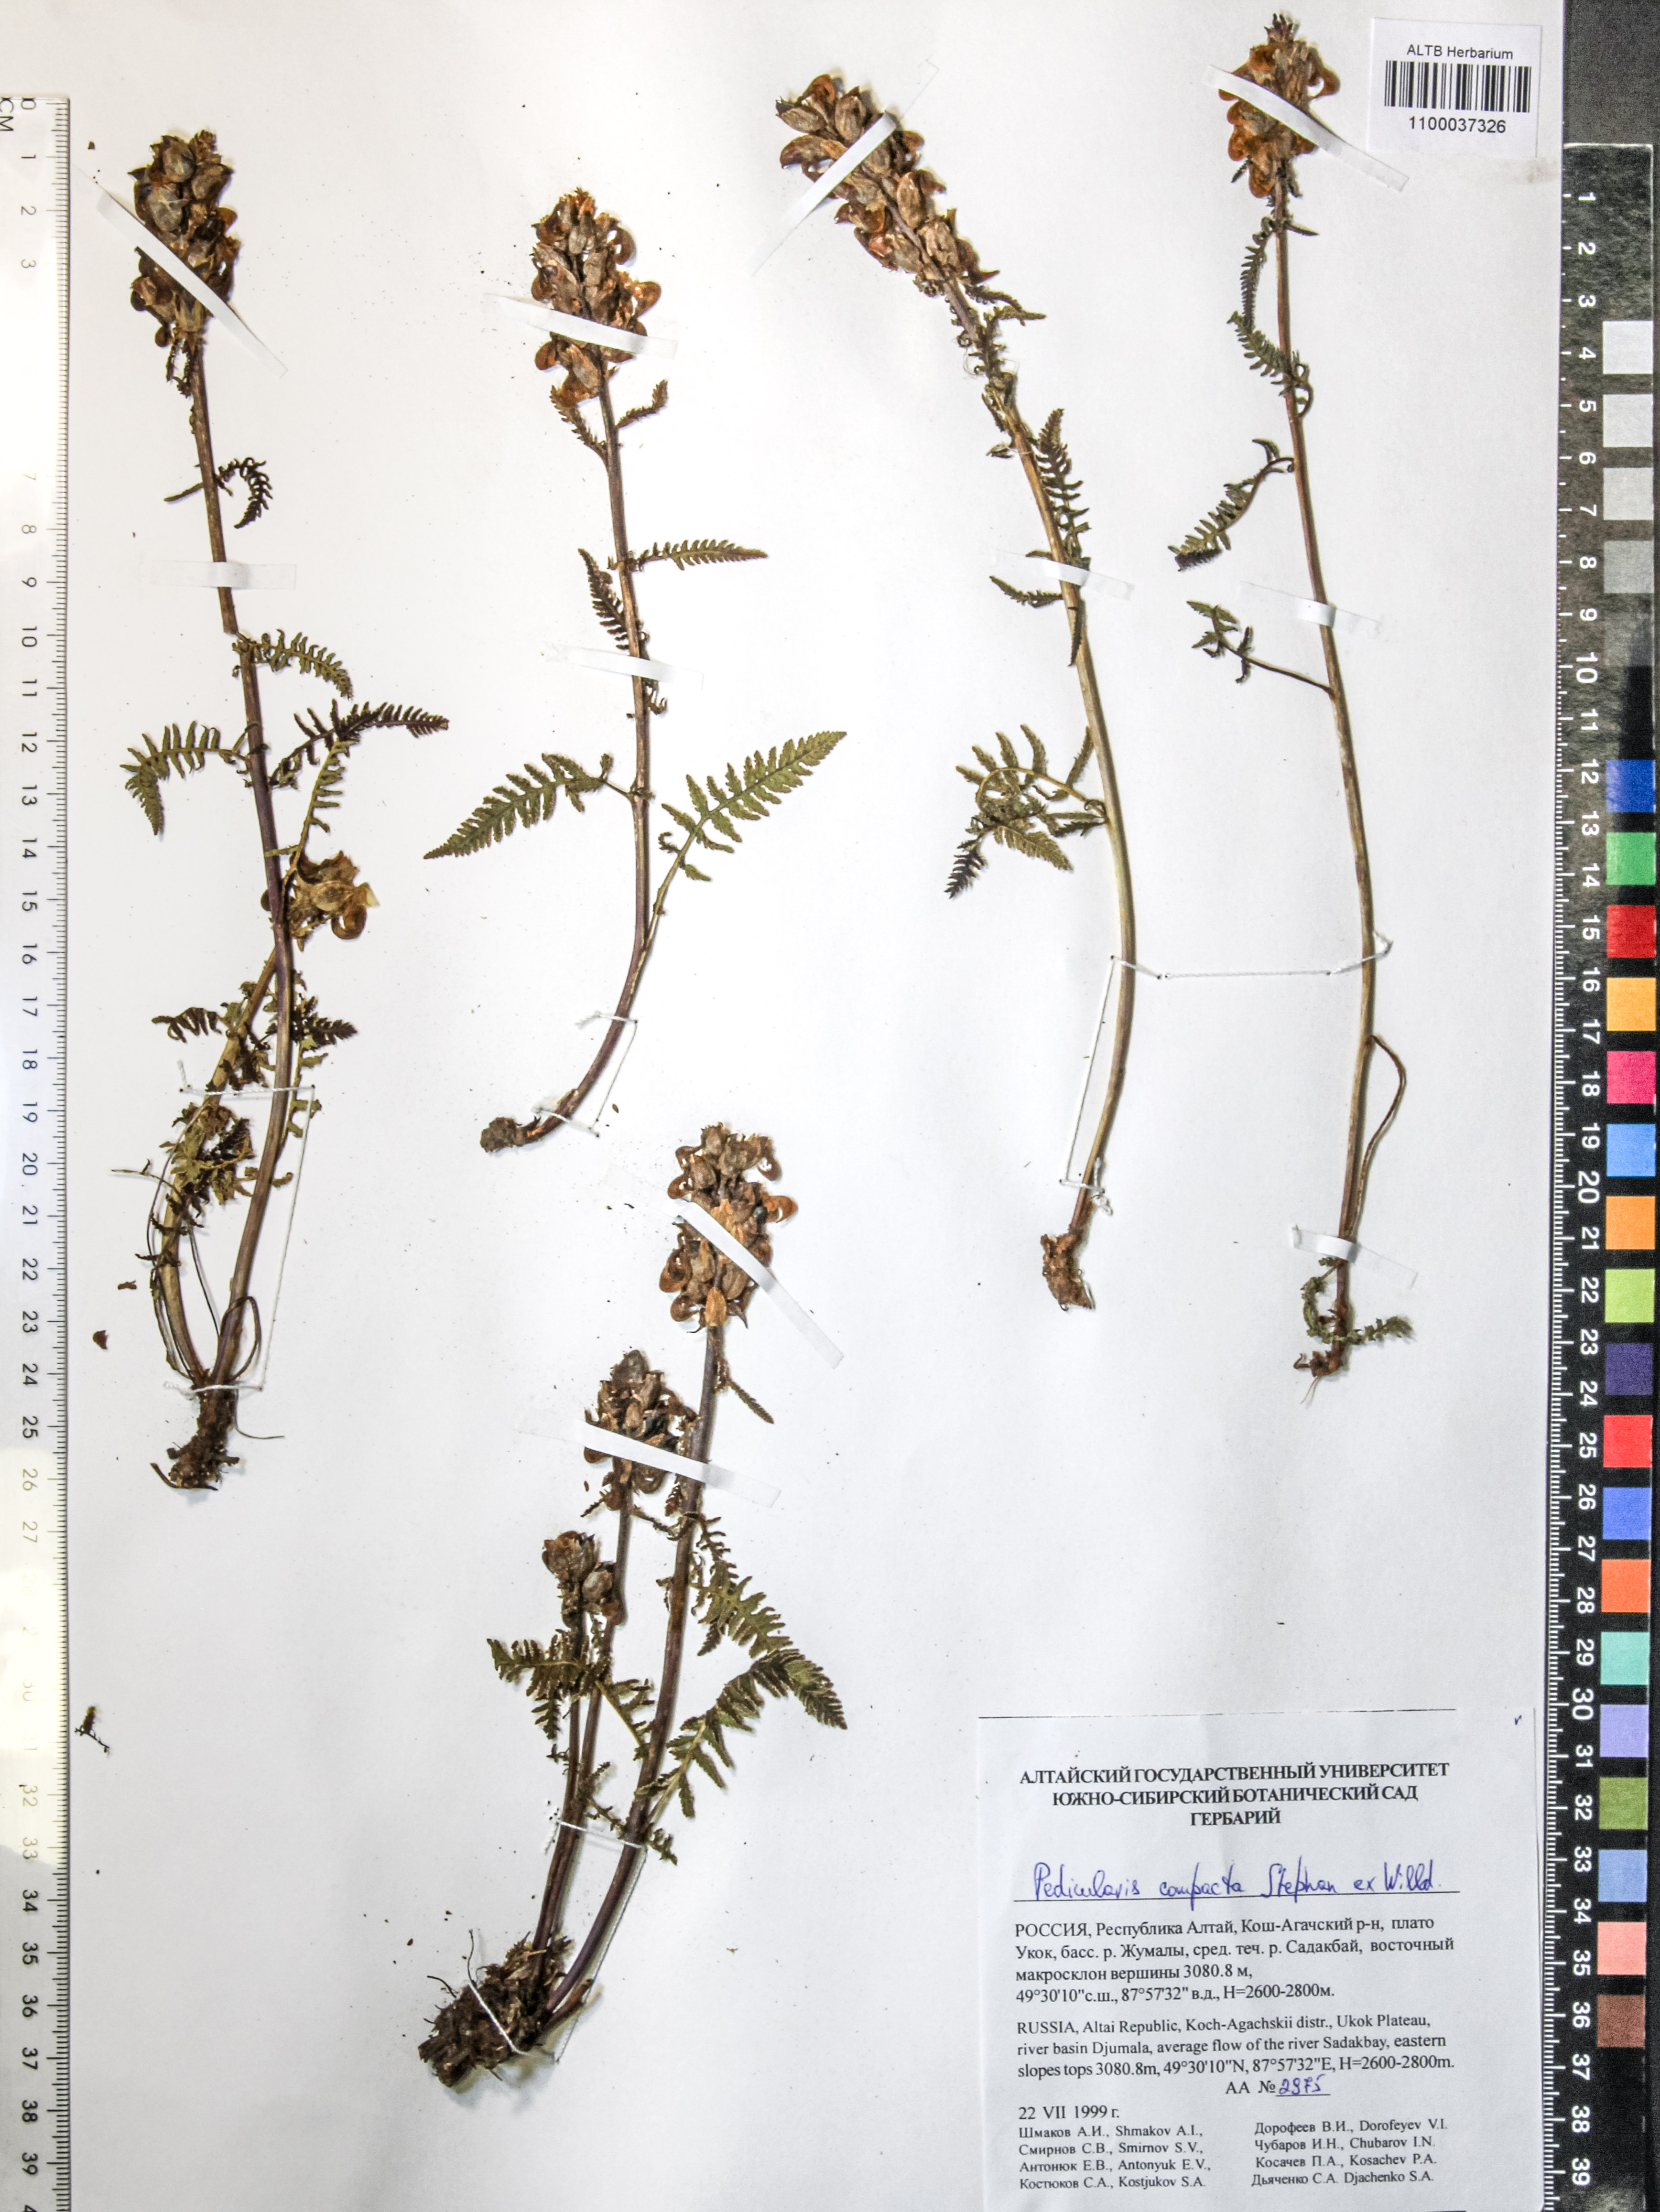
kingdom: Plantae
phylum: Tracheophyta
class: Magnoliopsida
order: Lamiales
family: Orobanchaceae
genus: Pedicularis
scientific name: Pedicularis compacta
